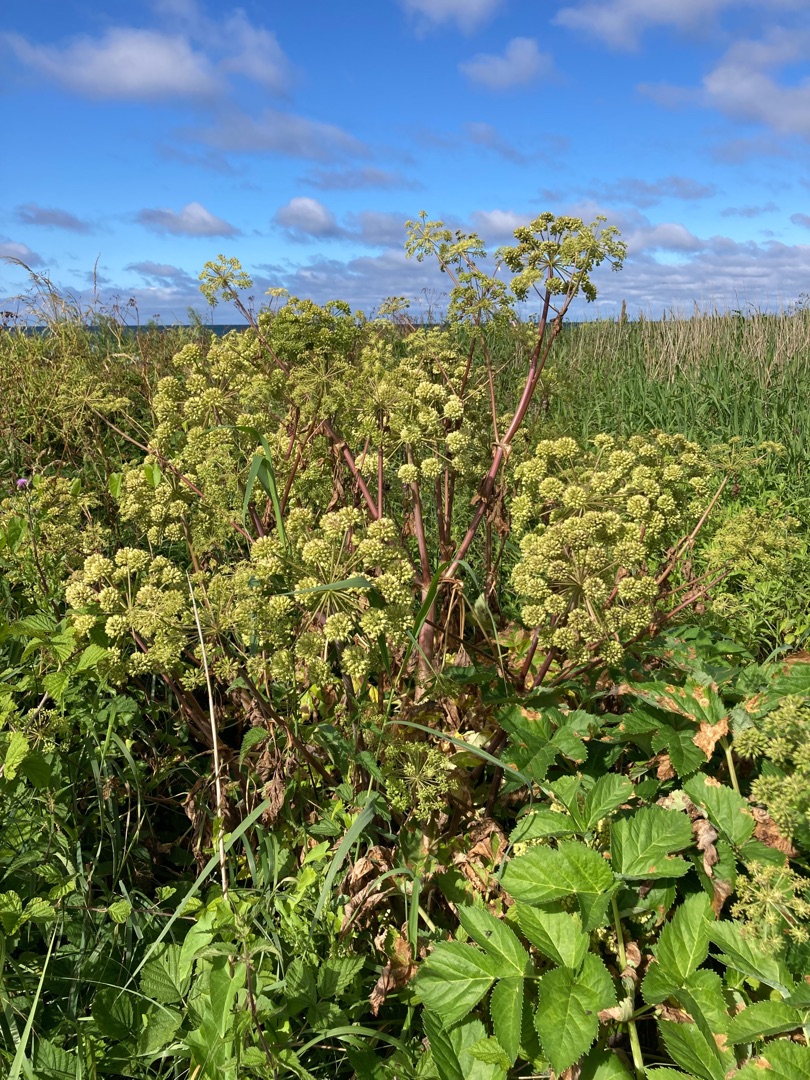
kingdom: Plantae
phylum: Tracheophyta
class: Magnoliopsida
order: Apiales
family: Apiaceae
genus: Angelica
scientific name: Angelica archangelica
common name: Fjeld-kvan
